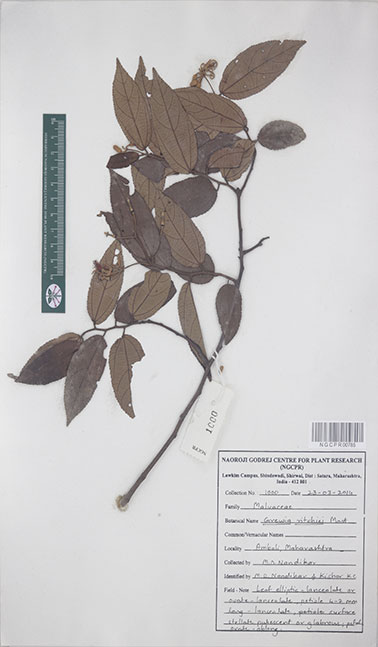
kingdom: Plantae
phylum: Tracheophyta
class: Magnoliopsida
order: Malvales
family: Malvaceae
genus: Grewia
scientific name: Grewia ritchiei
